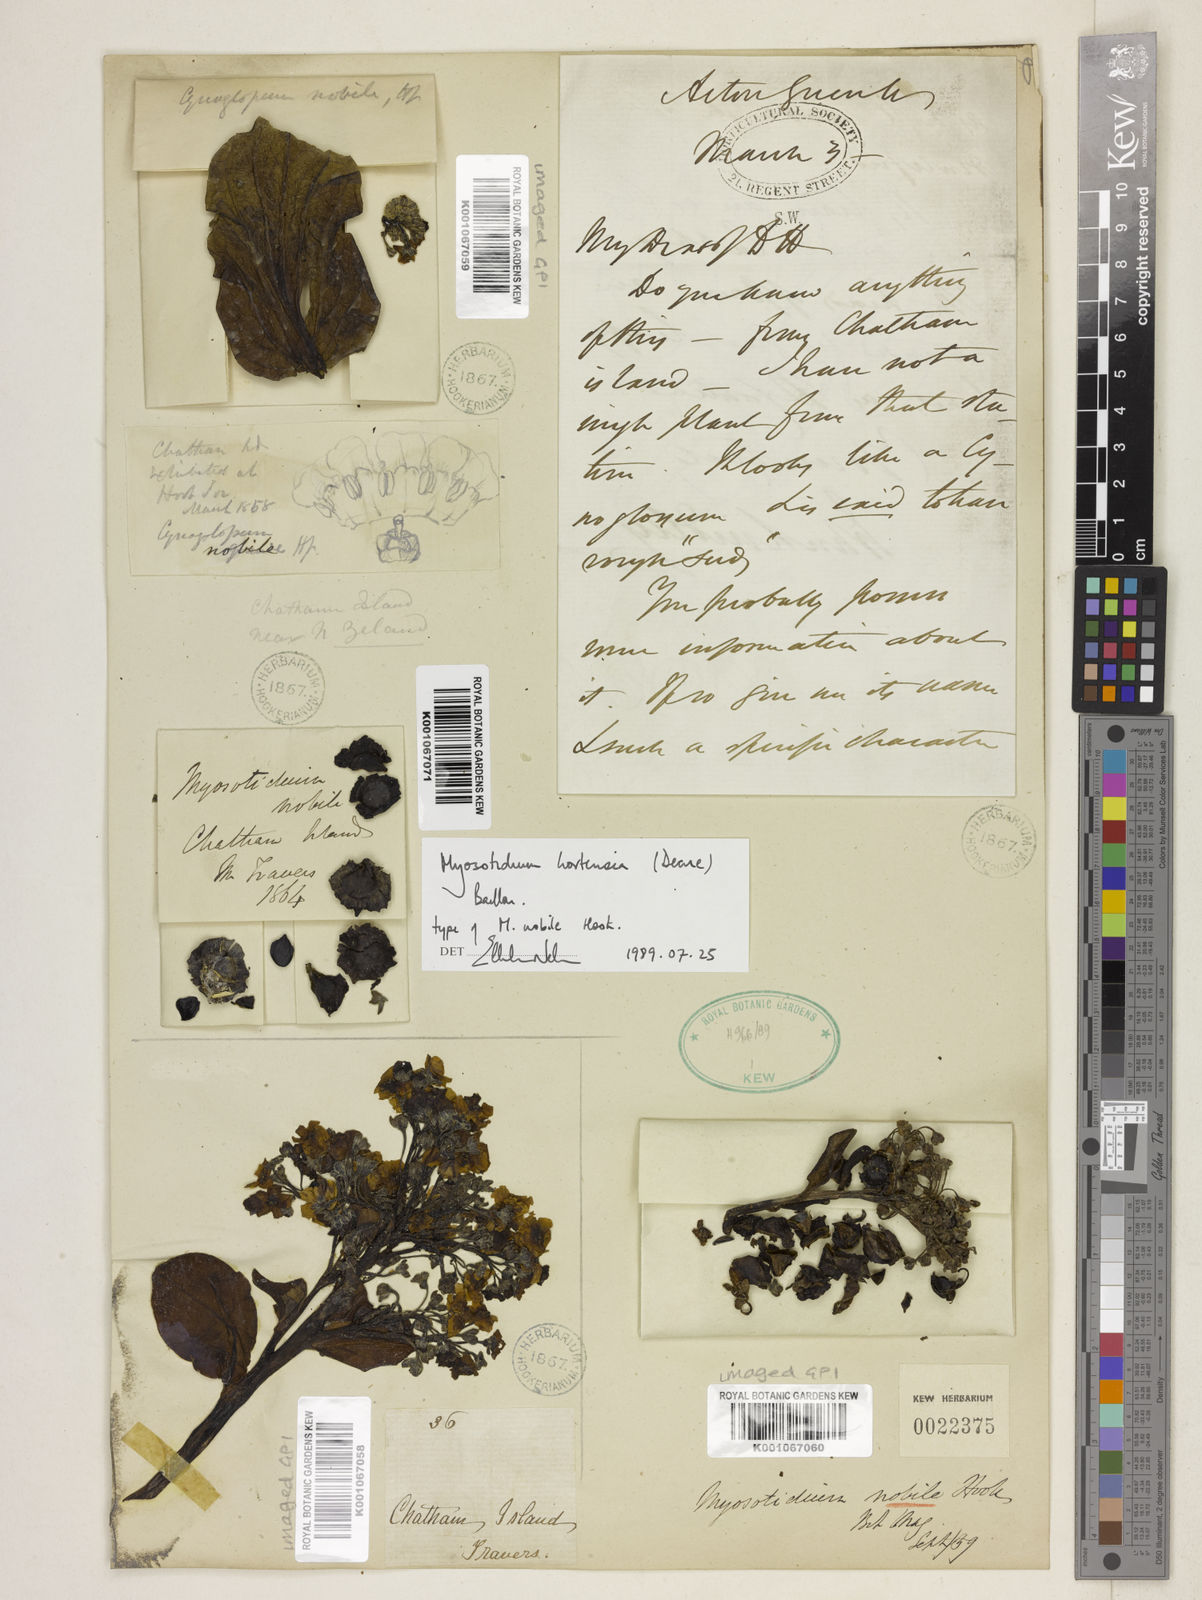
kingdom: Plantae
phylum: Tracheophyta
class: Magnoliopsida
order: Boraginales
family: Boraginaceae
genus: Myosotidium
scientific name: Myosotidium hortensia
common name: Giant forget-me-not
